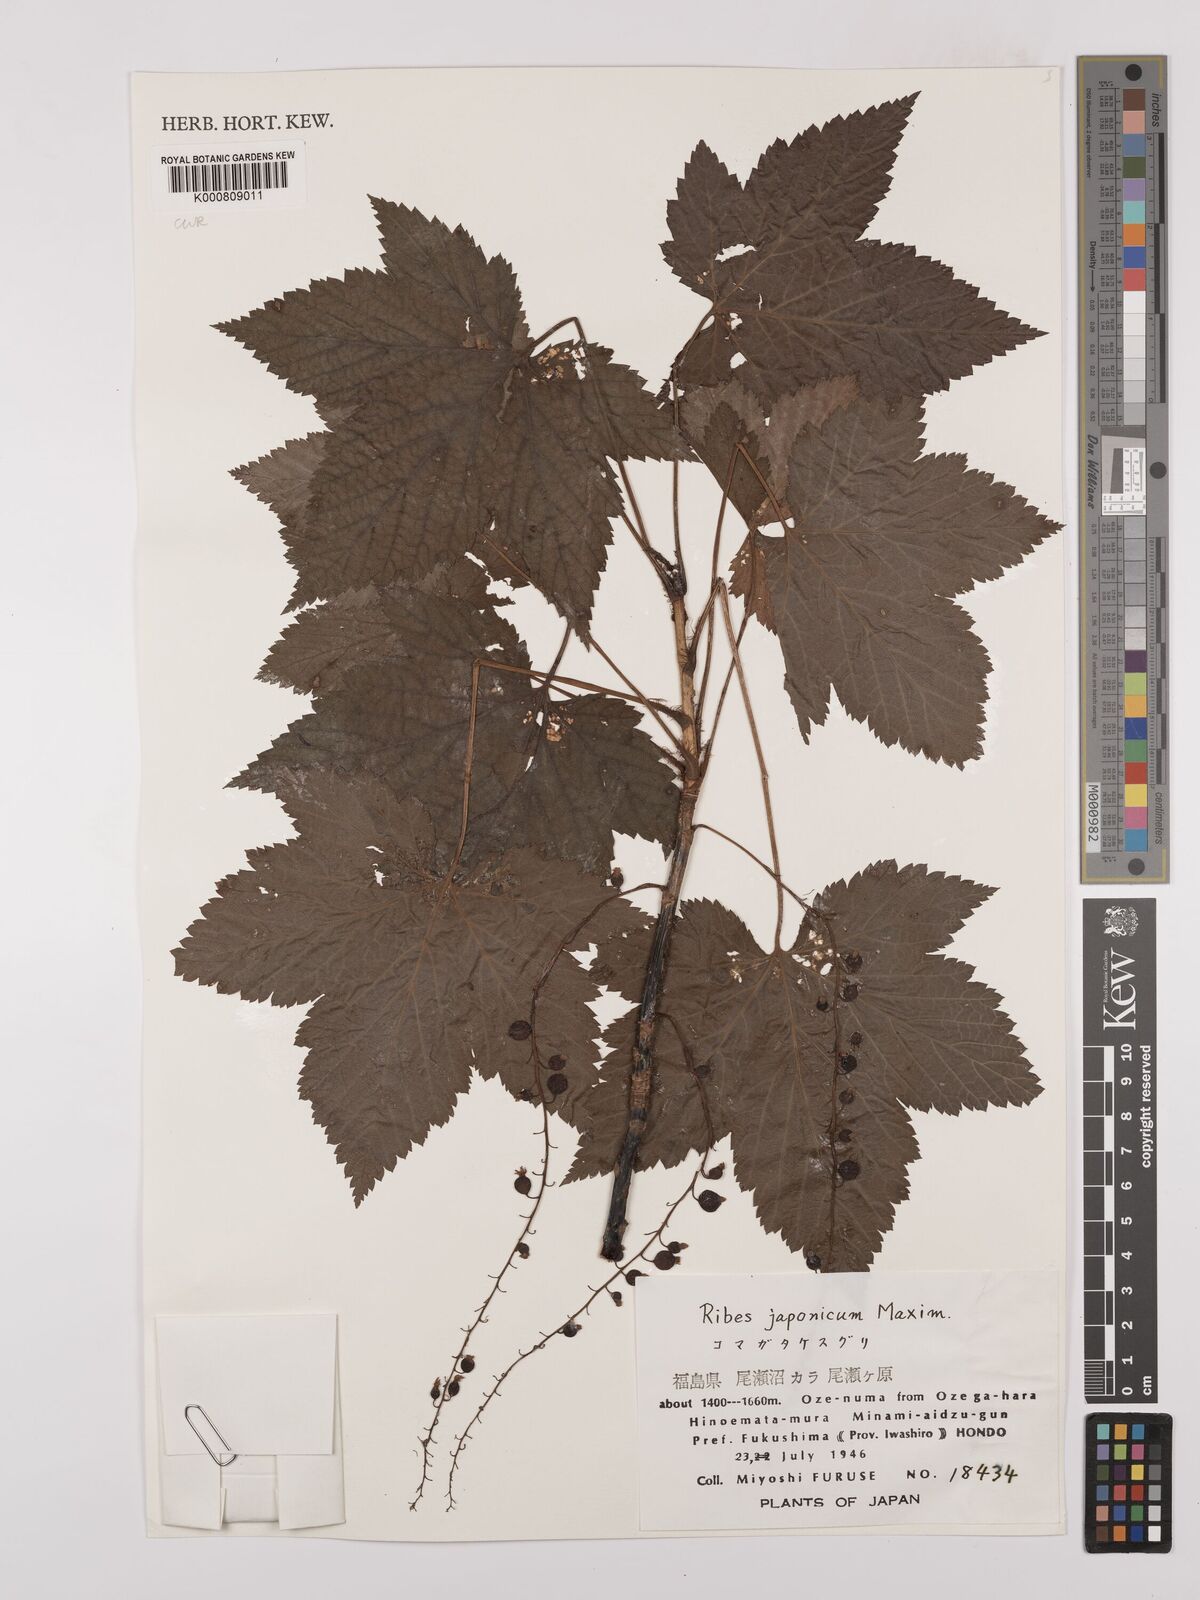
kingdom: Plantae
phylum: Tracheophyta
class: Magnoliopsida
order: Saxifragales
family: Grossulariaceae
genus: Ribes
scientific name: Ribes japonicum
